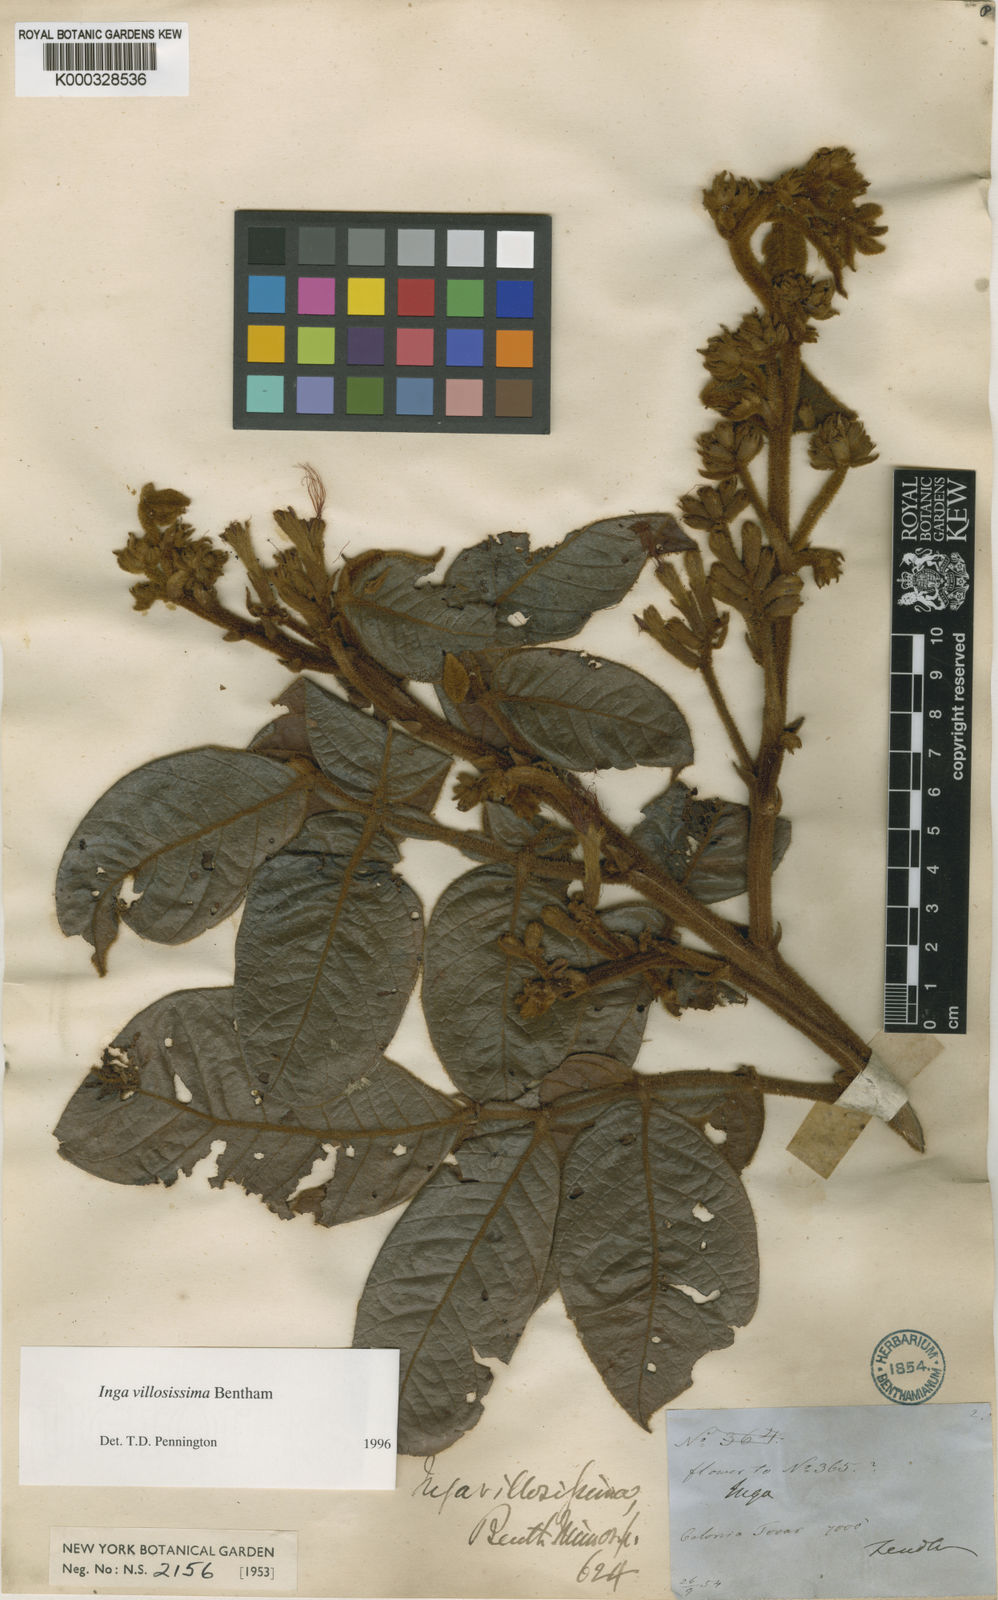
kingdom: Plantae
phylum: Tracheophyta
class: Magnoliopsida
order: Fabales
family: Fabaceae
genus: Inga
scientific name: Inga villosissima
